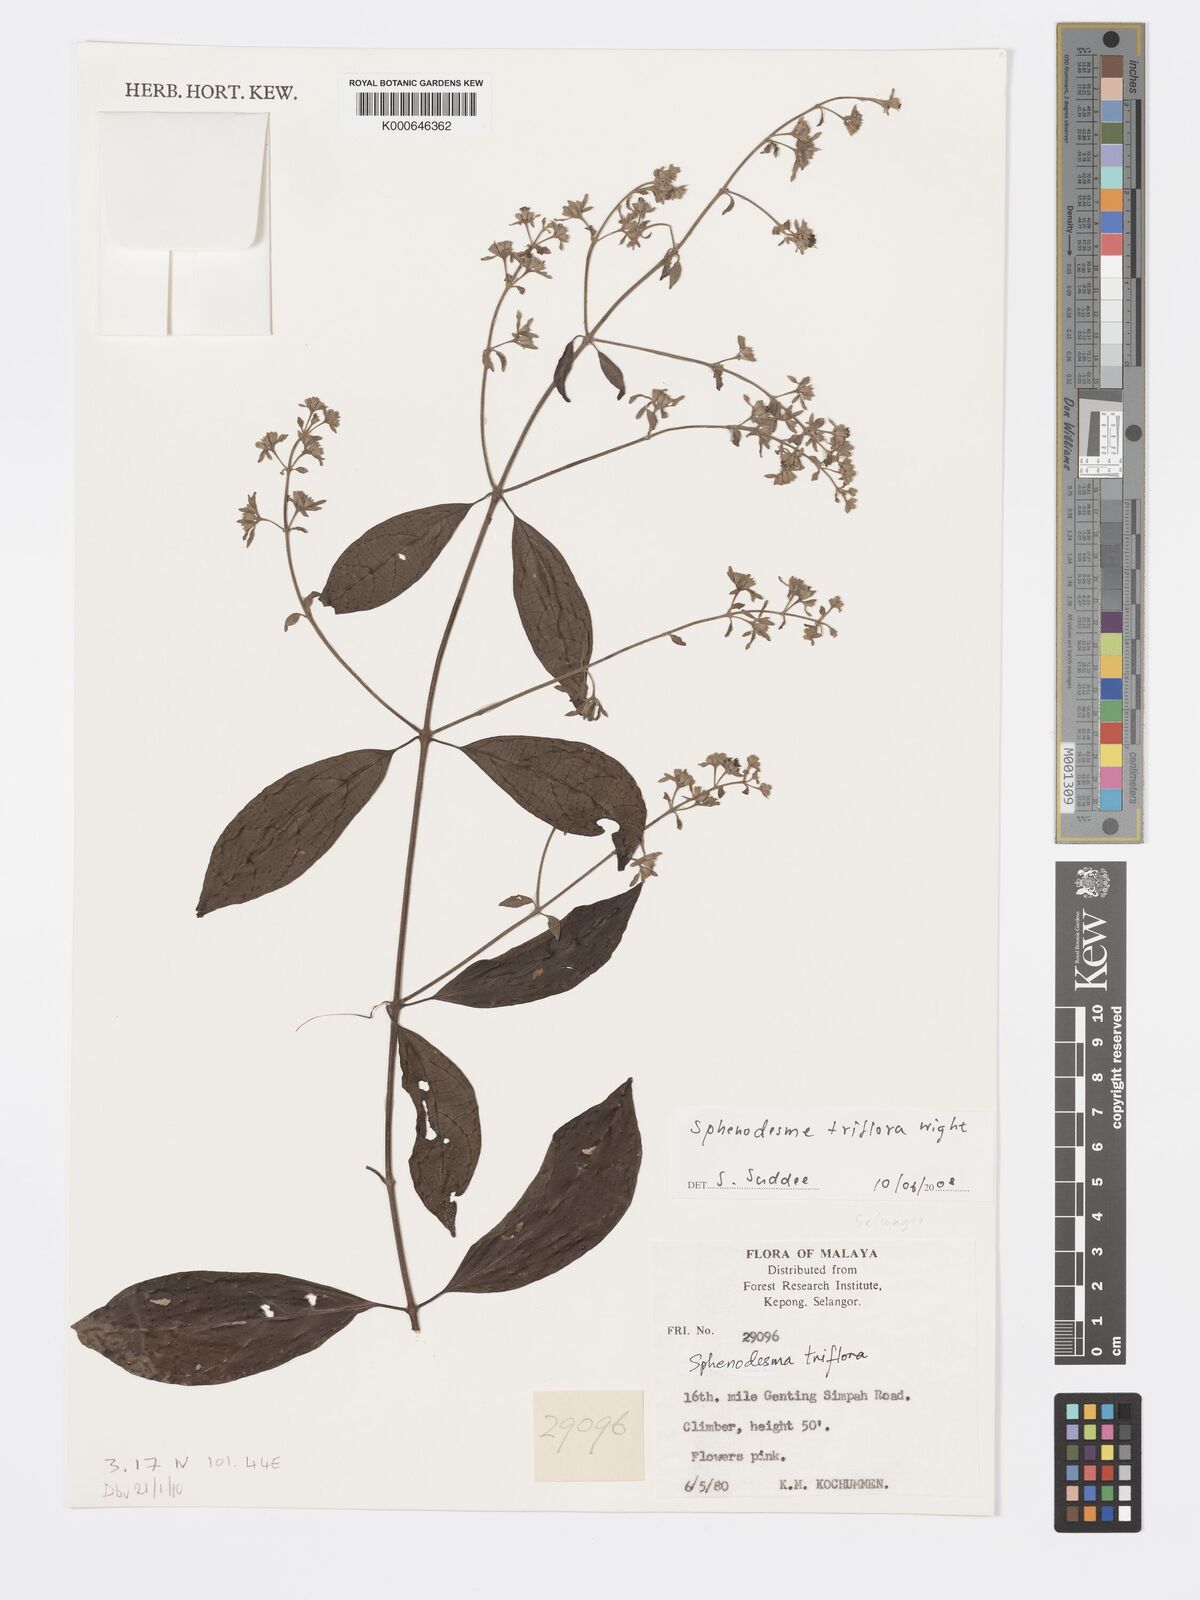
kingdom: Plantae
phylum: Tracheophyta
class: Magnoliopsida
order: Lamiales
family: Lamiaceae
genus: Sphenodesme
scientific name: Sphenodesme
